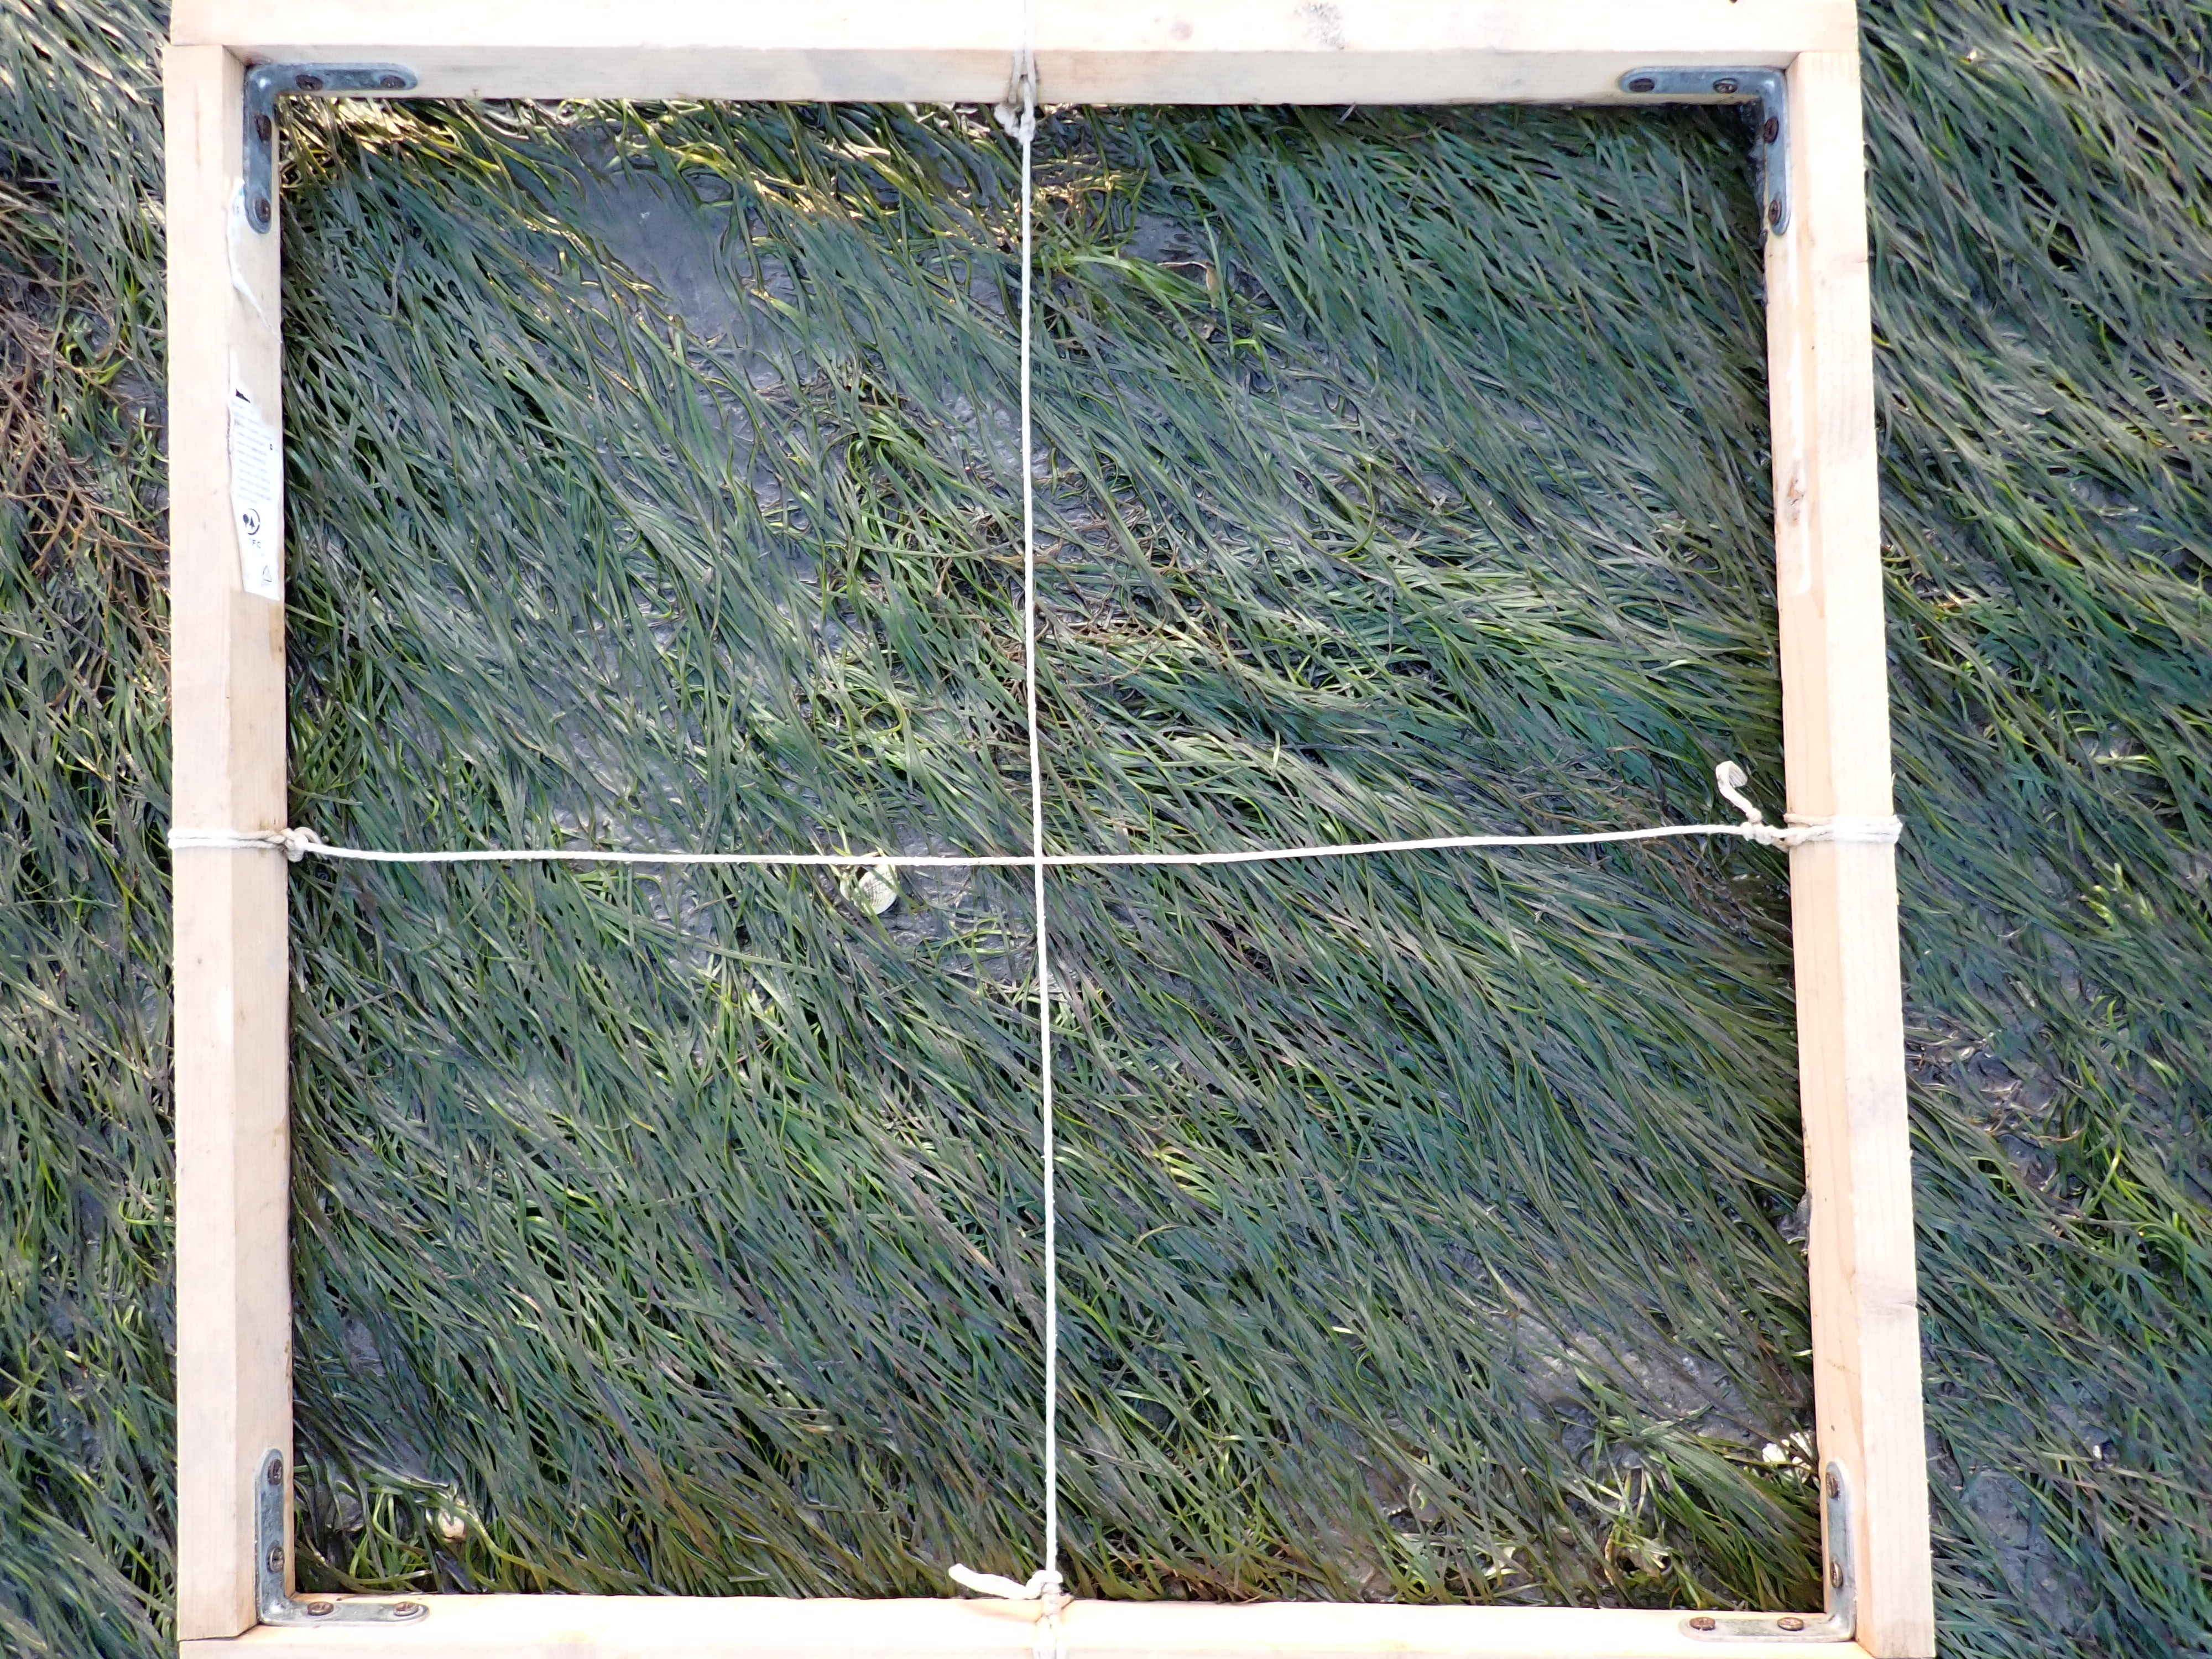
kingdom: Plantae
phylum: Tracheophyta
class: Liliopsida
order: Alismatales
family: Zosteraceae
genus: Zostera
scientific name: Zostera noltii
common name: Dwarf eelgrass
